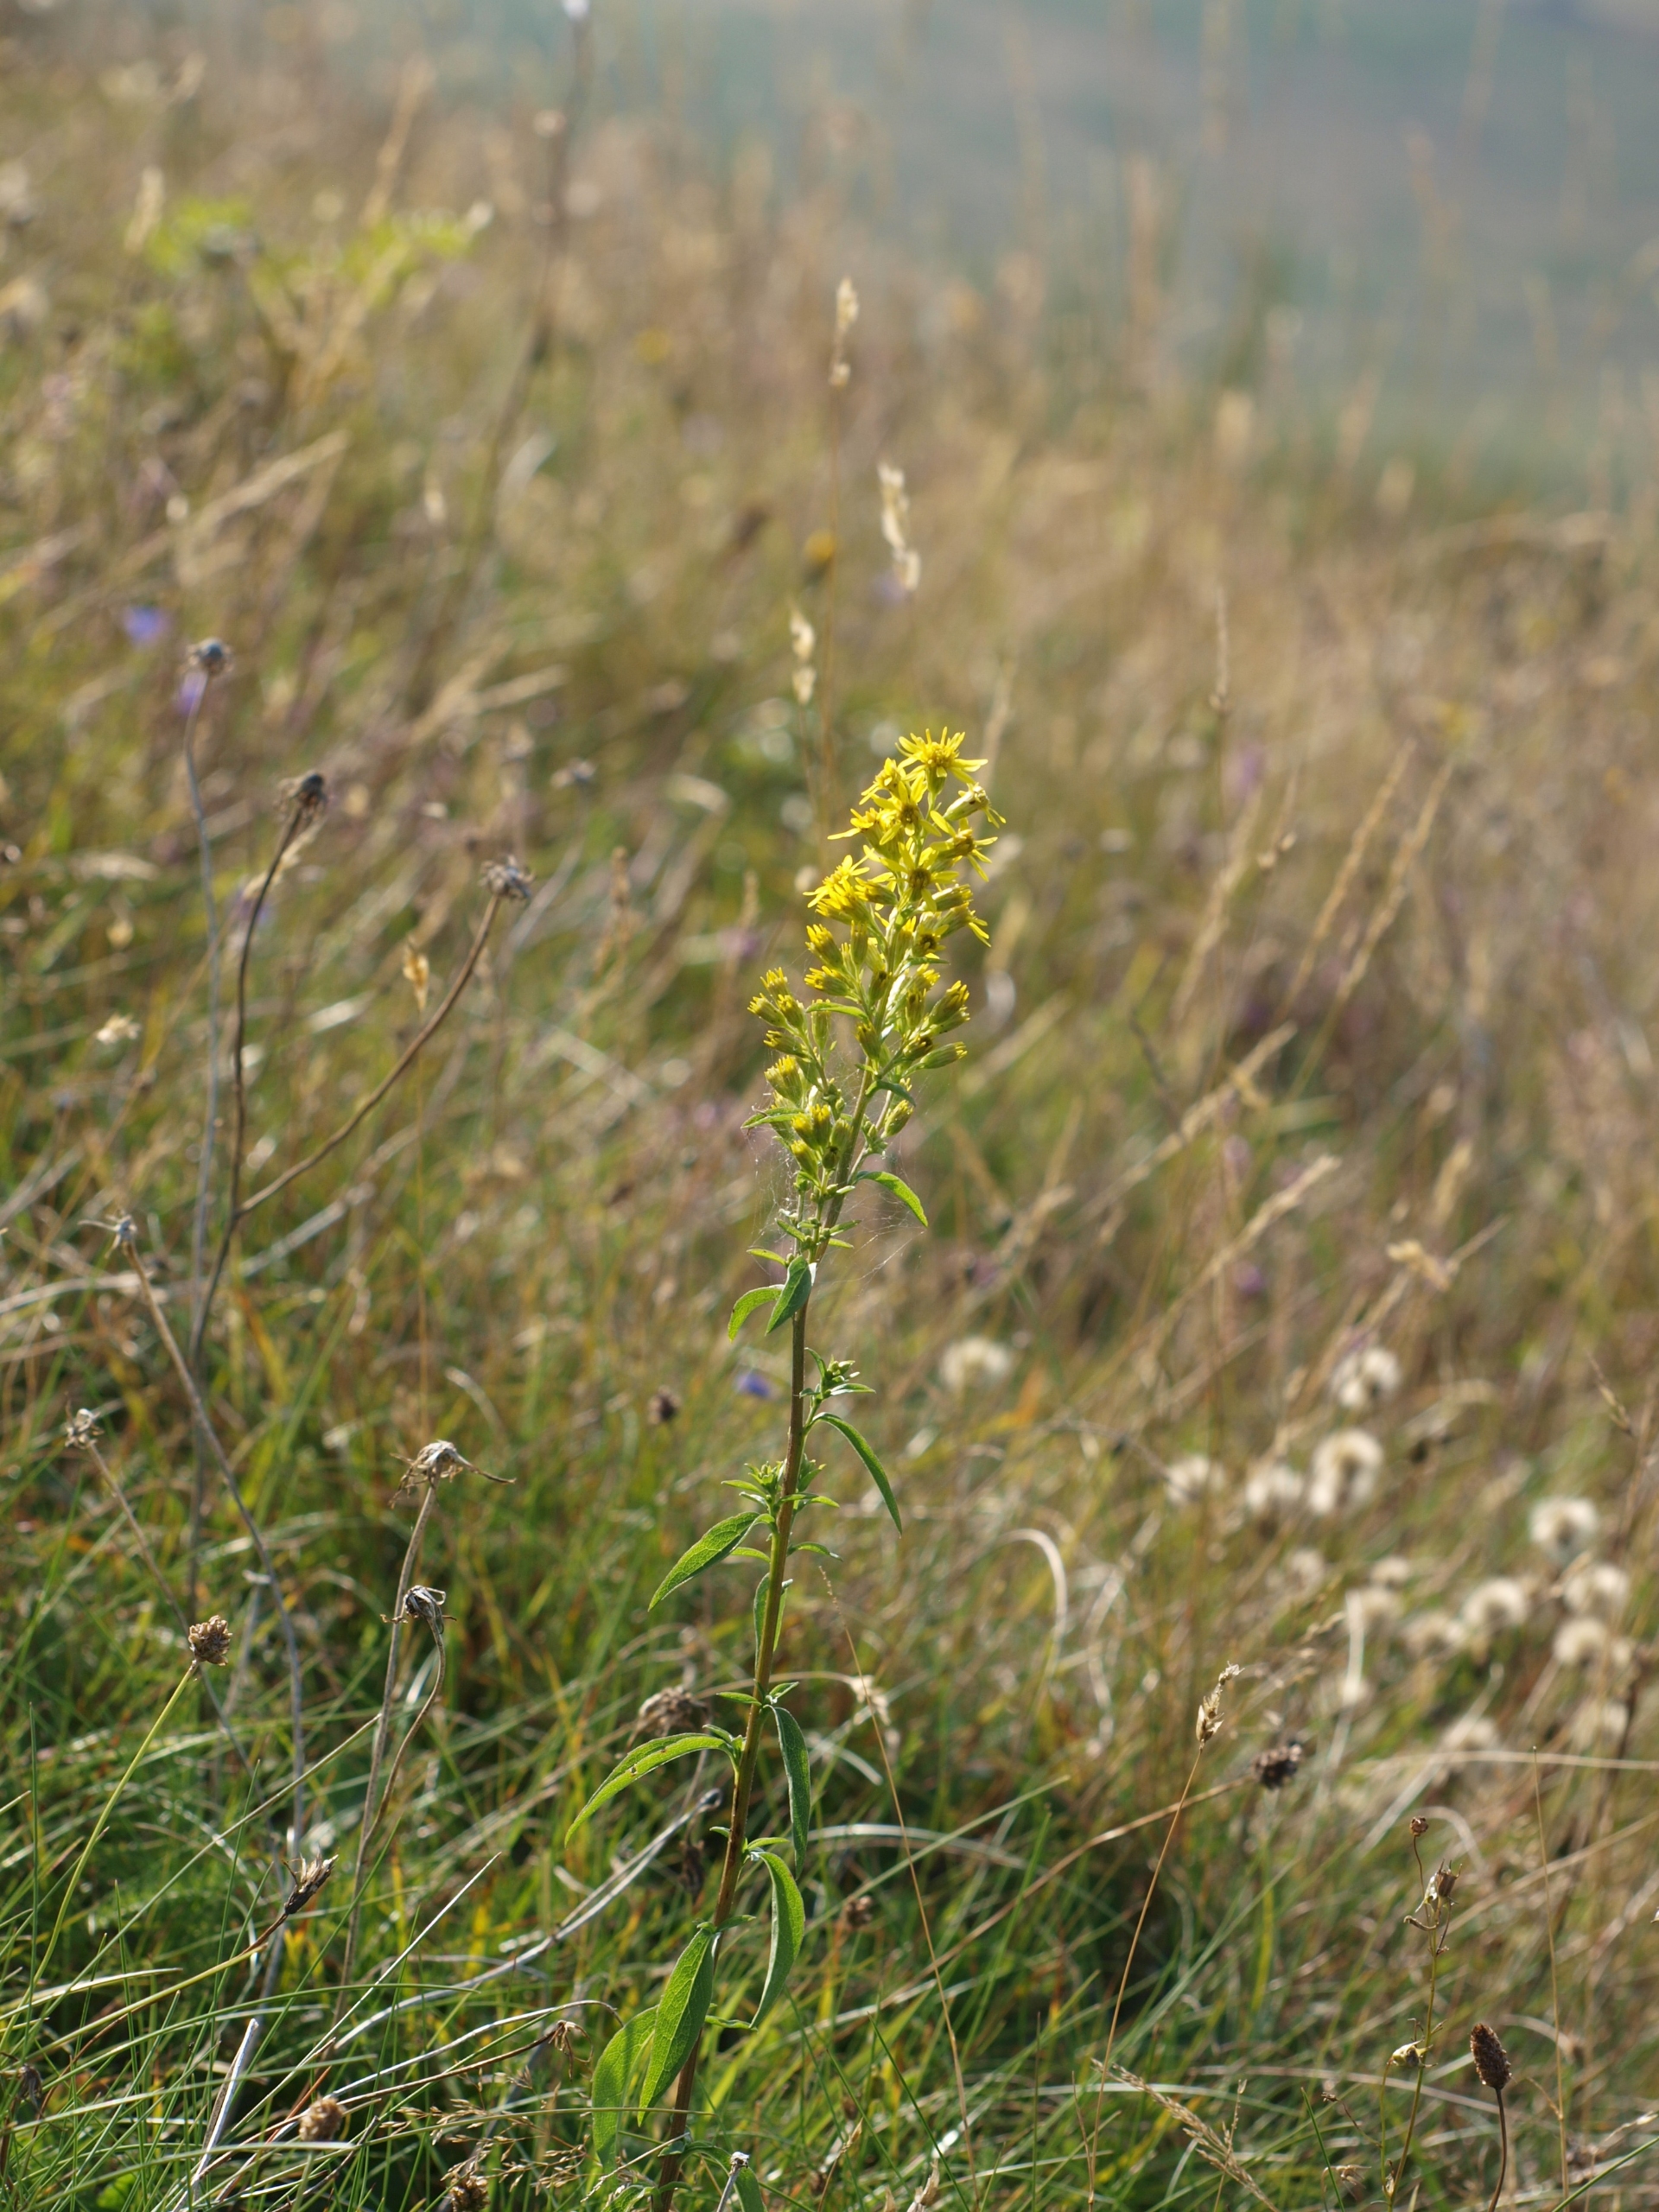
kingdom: Plantae
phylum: Tracheophyta
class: Magnoliopsida
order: Asterales
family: Asteraceae
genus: Solidago
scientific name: Solidago virgaurea
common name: Almindelig gyldenris
